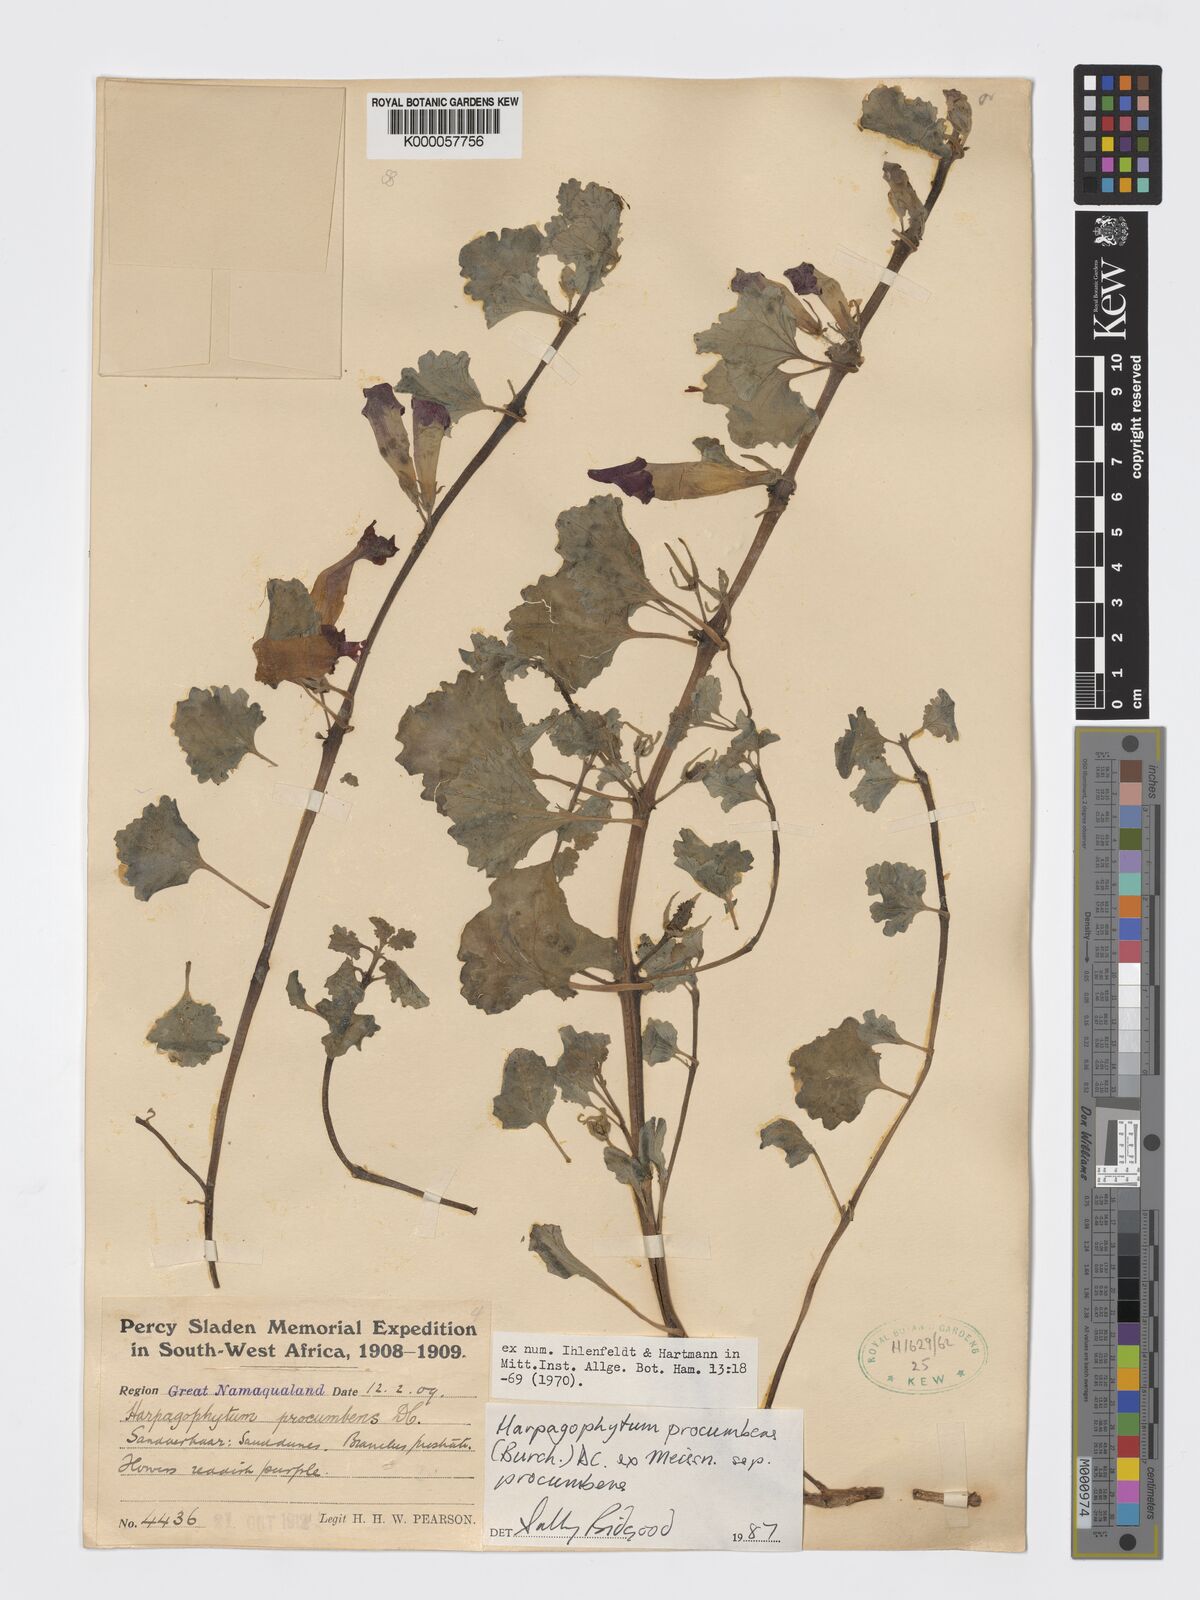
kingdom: Plantae
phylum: Tracheophyta
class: Magnoliopsida
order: Lamiales
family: Pedaliaceae
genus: Harpagophytum
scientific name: Harpagophytum procumbens
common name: Grappleplant
